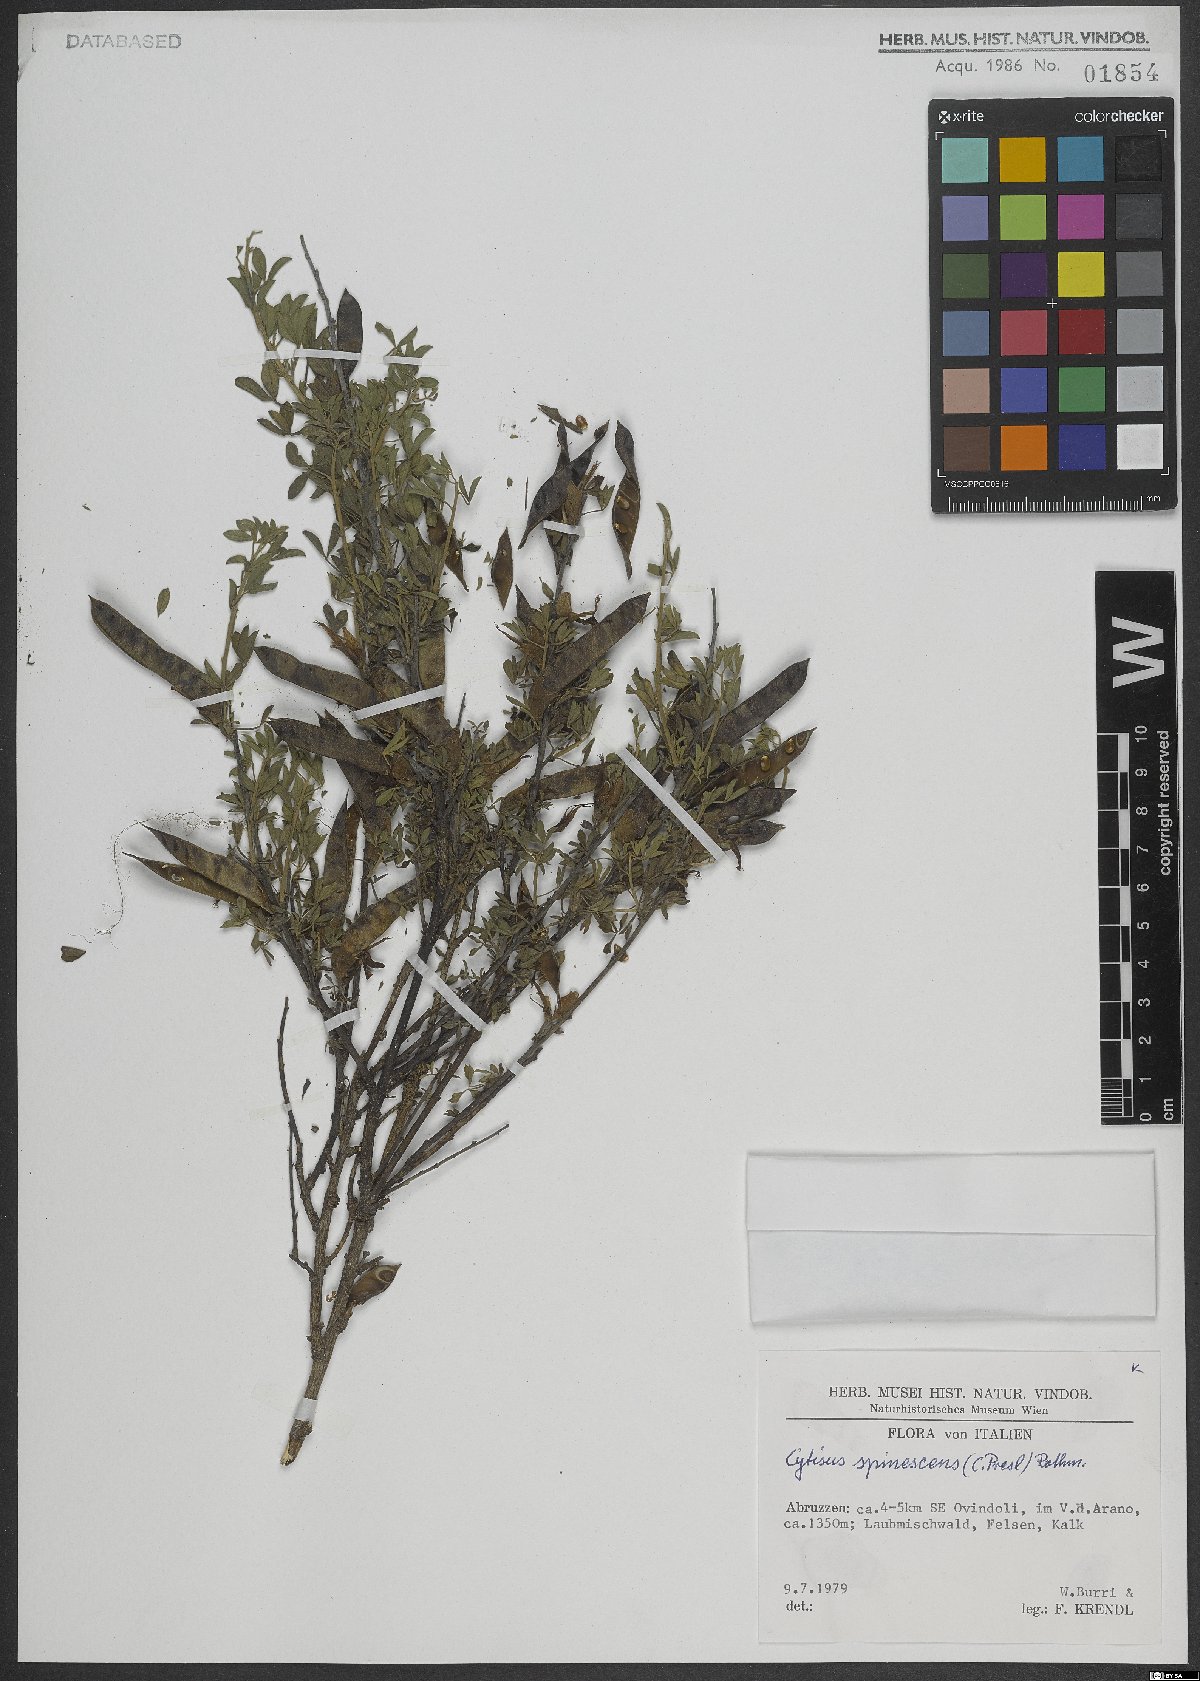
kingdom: Plantae
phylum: Tracheophyta
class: Magnoliopsida
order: Fabales
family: Fabaceae
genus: Chamaecytisus
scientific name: Chamaecytisus spinescens
